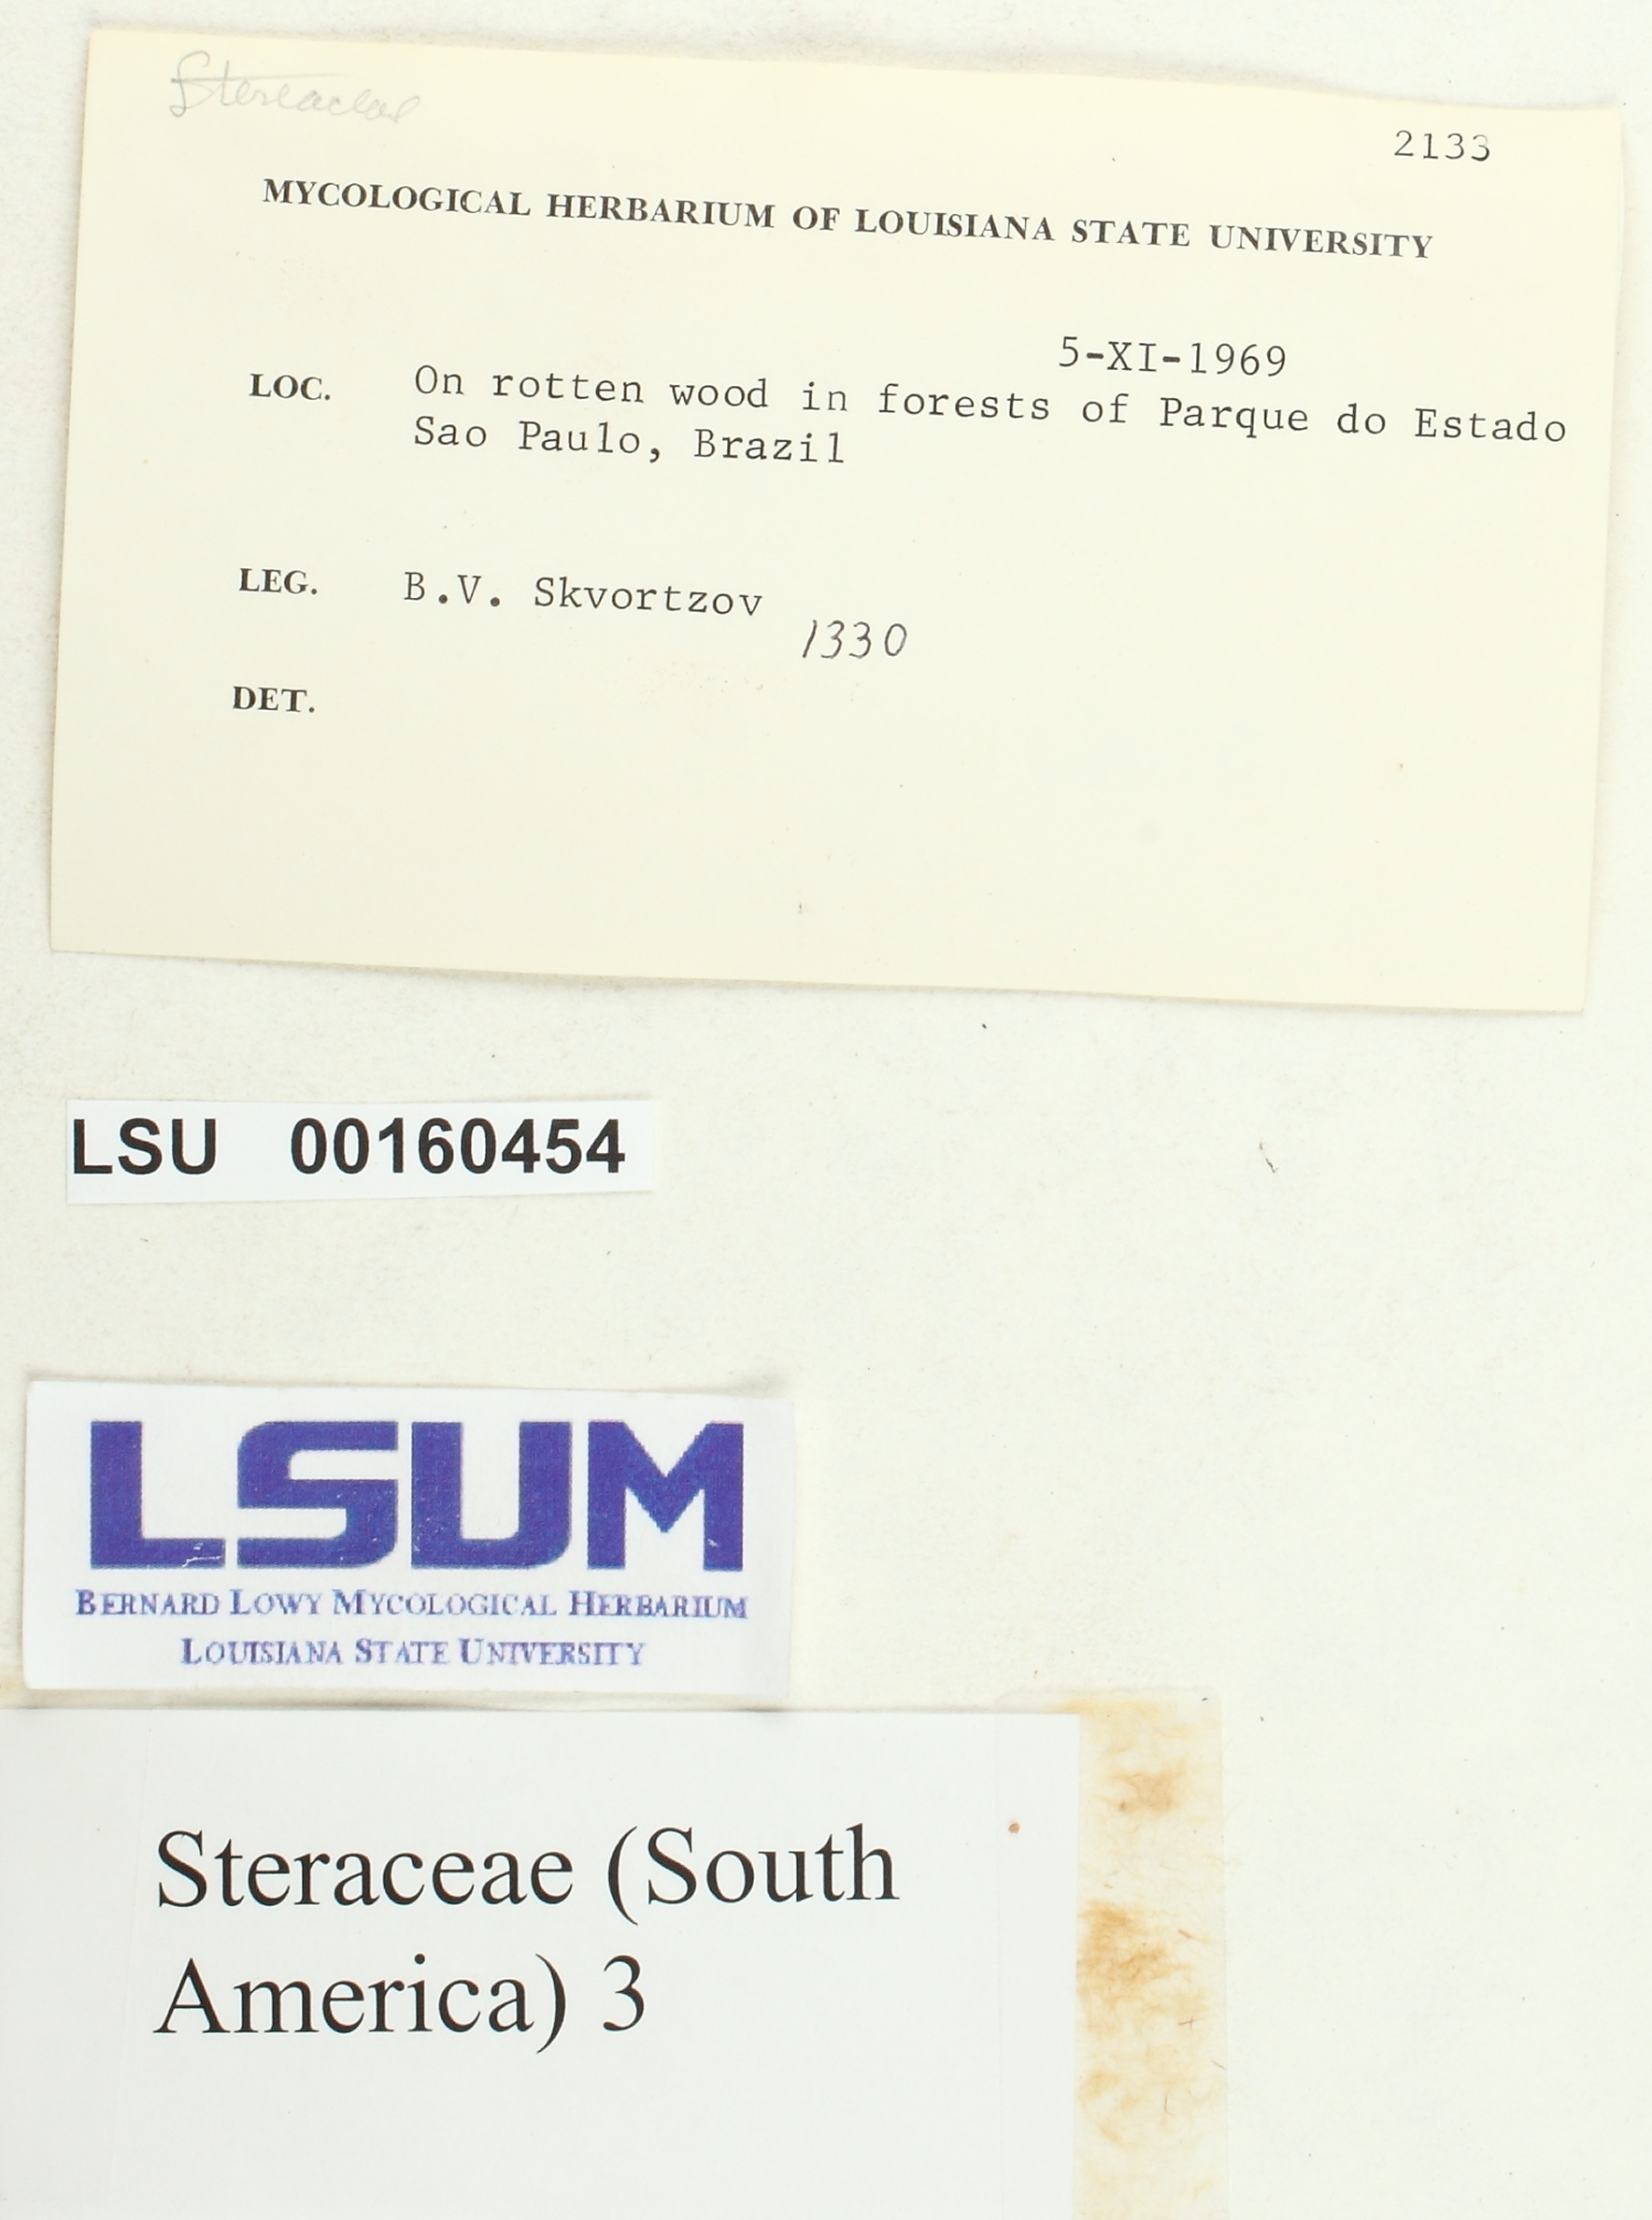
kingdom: Fungi
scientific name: Fungi
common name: Fungi
